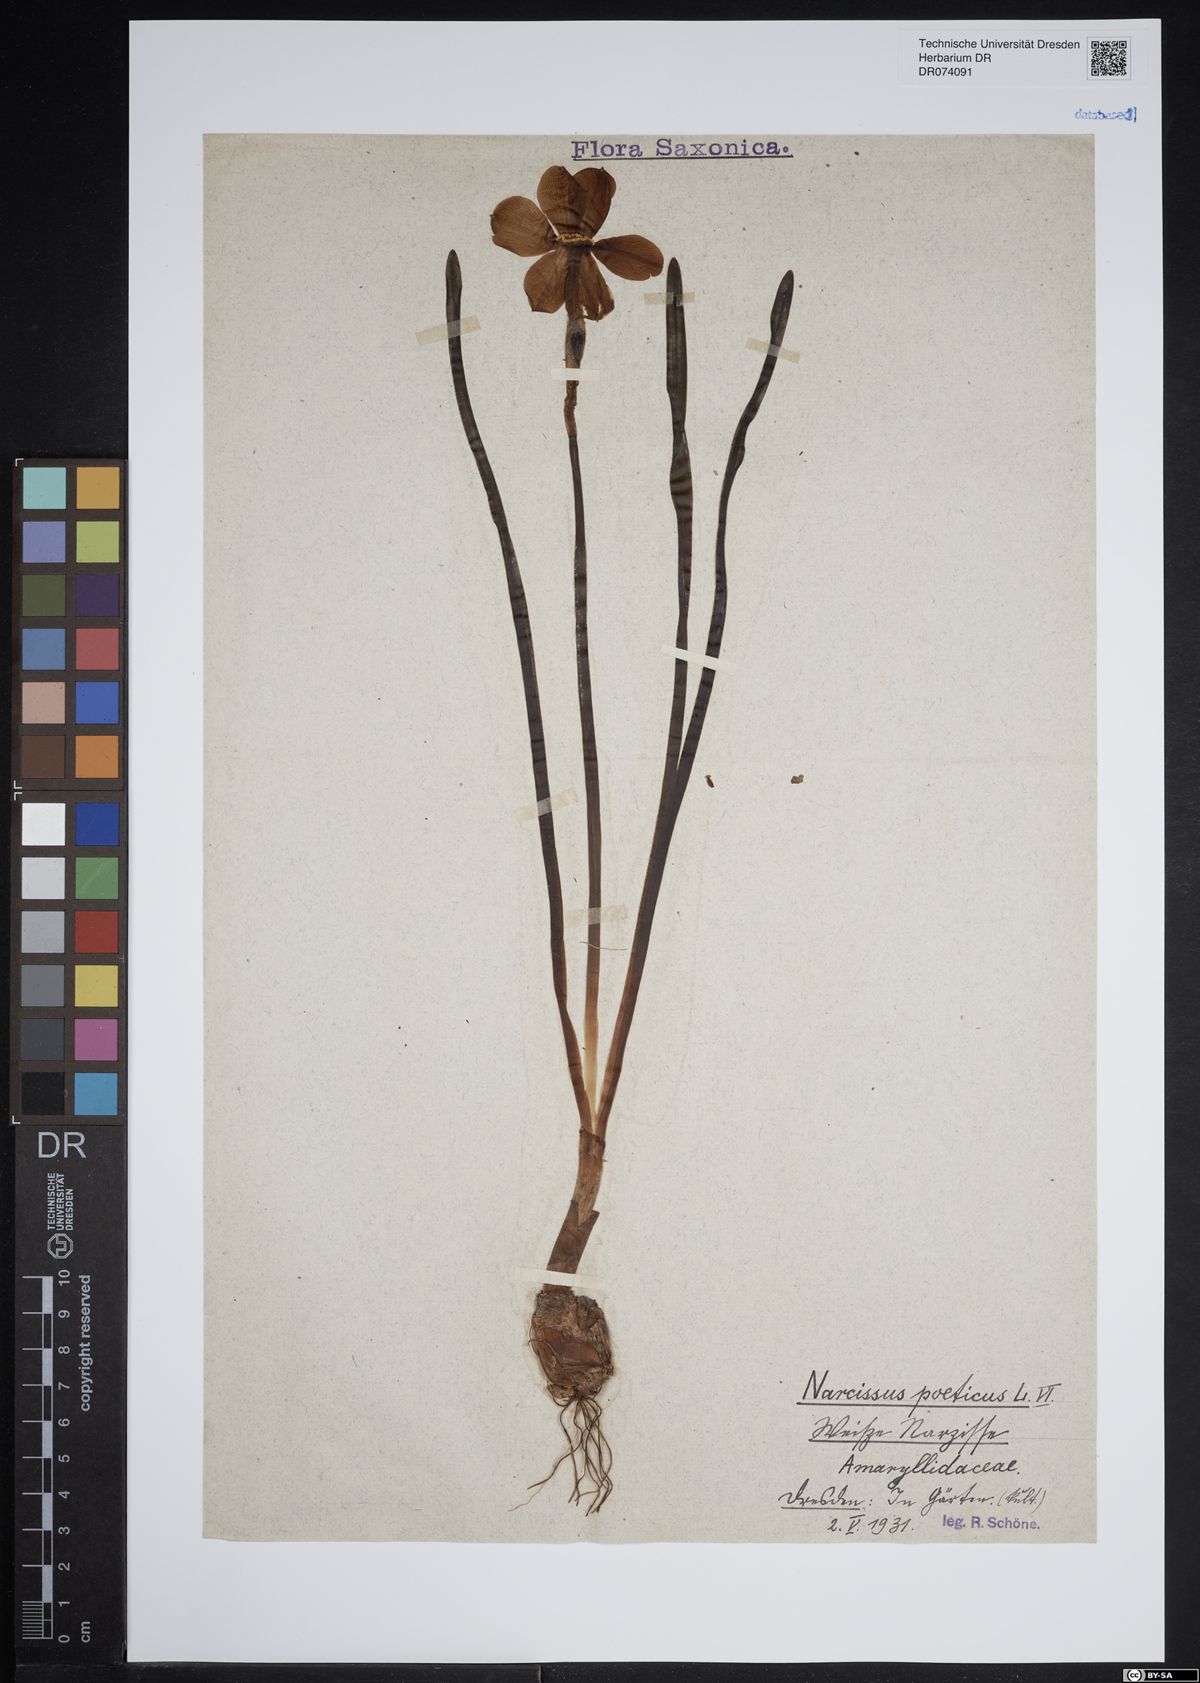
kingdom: Plantae
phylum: Tracheophyta
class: Liliopsida
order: Asparagales
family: Amaryllidaceae
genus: Narcissus
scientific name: Narcissus poeticus
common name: Pheasant's-eye daffodil
